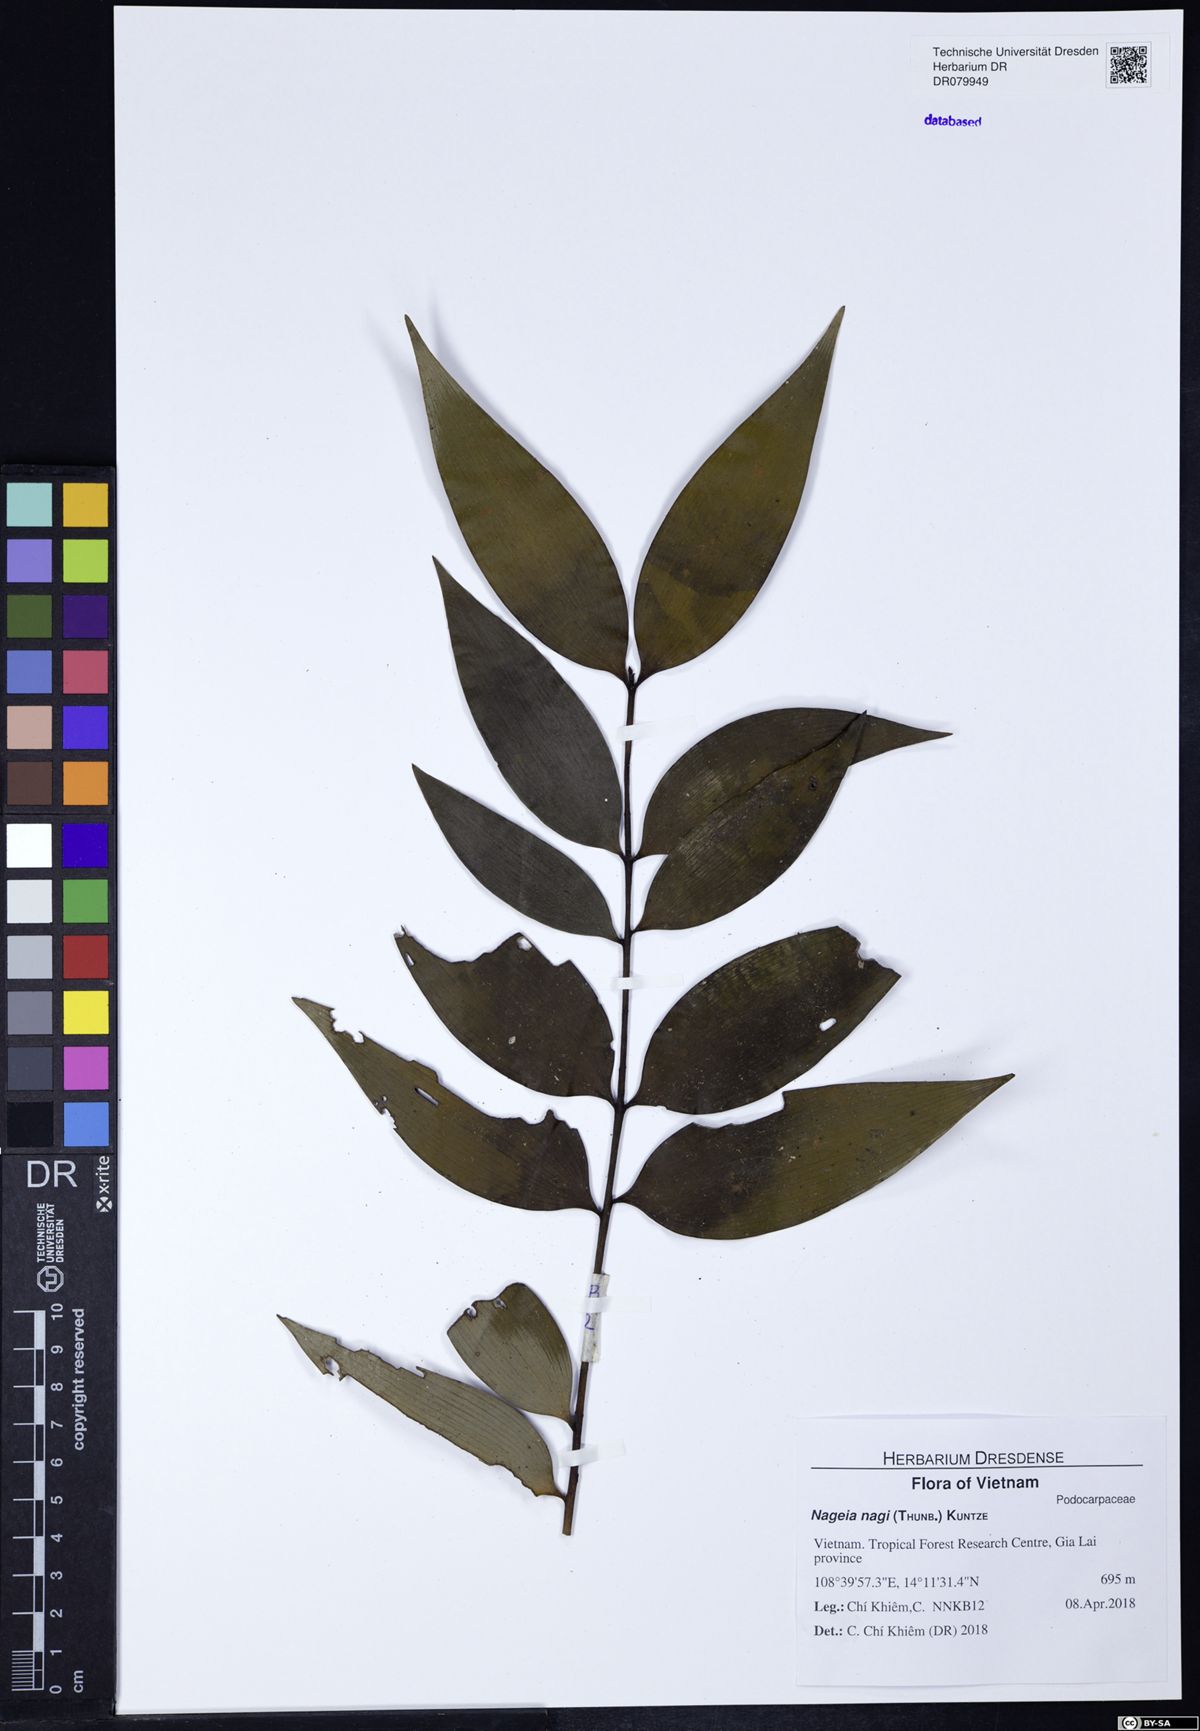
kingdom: Plantae
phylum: Tracheophyta
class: Pinopsida
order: Pinales
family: Podocarpaceae
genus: Nageia
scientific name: Nageia nagi
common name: Kaphal
